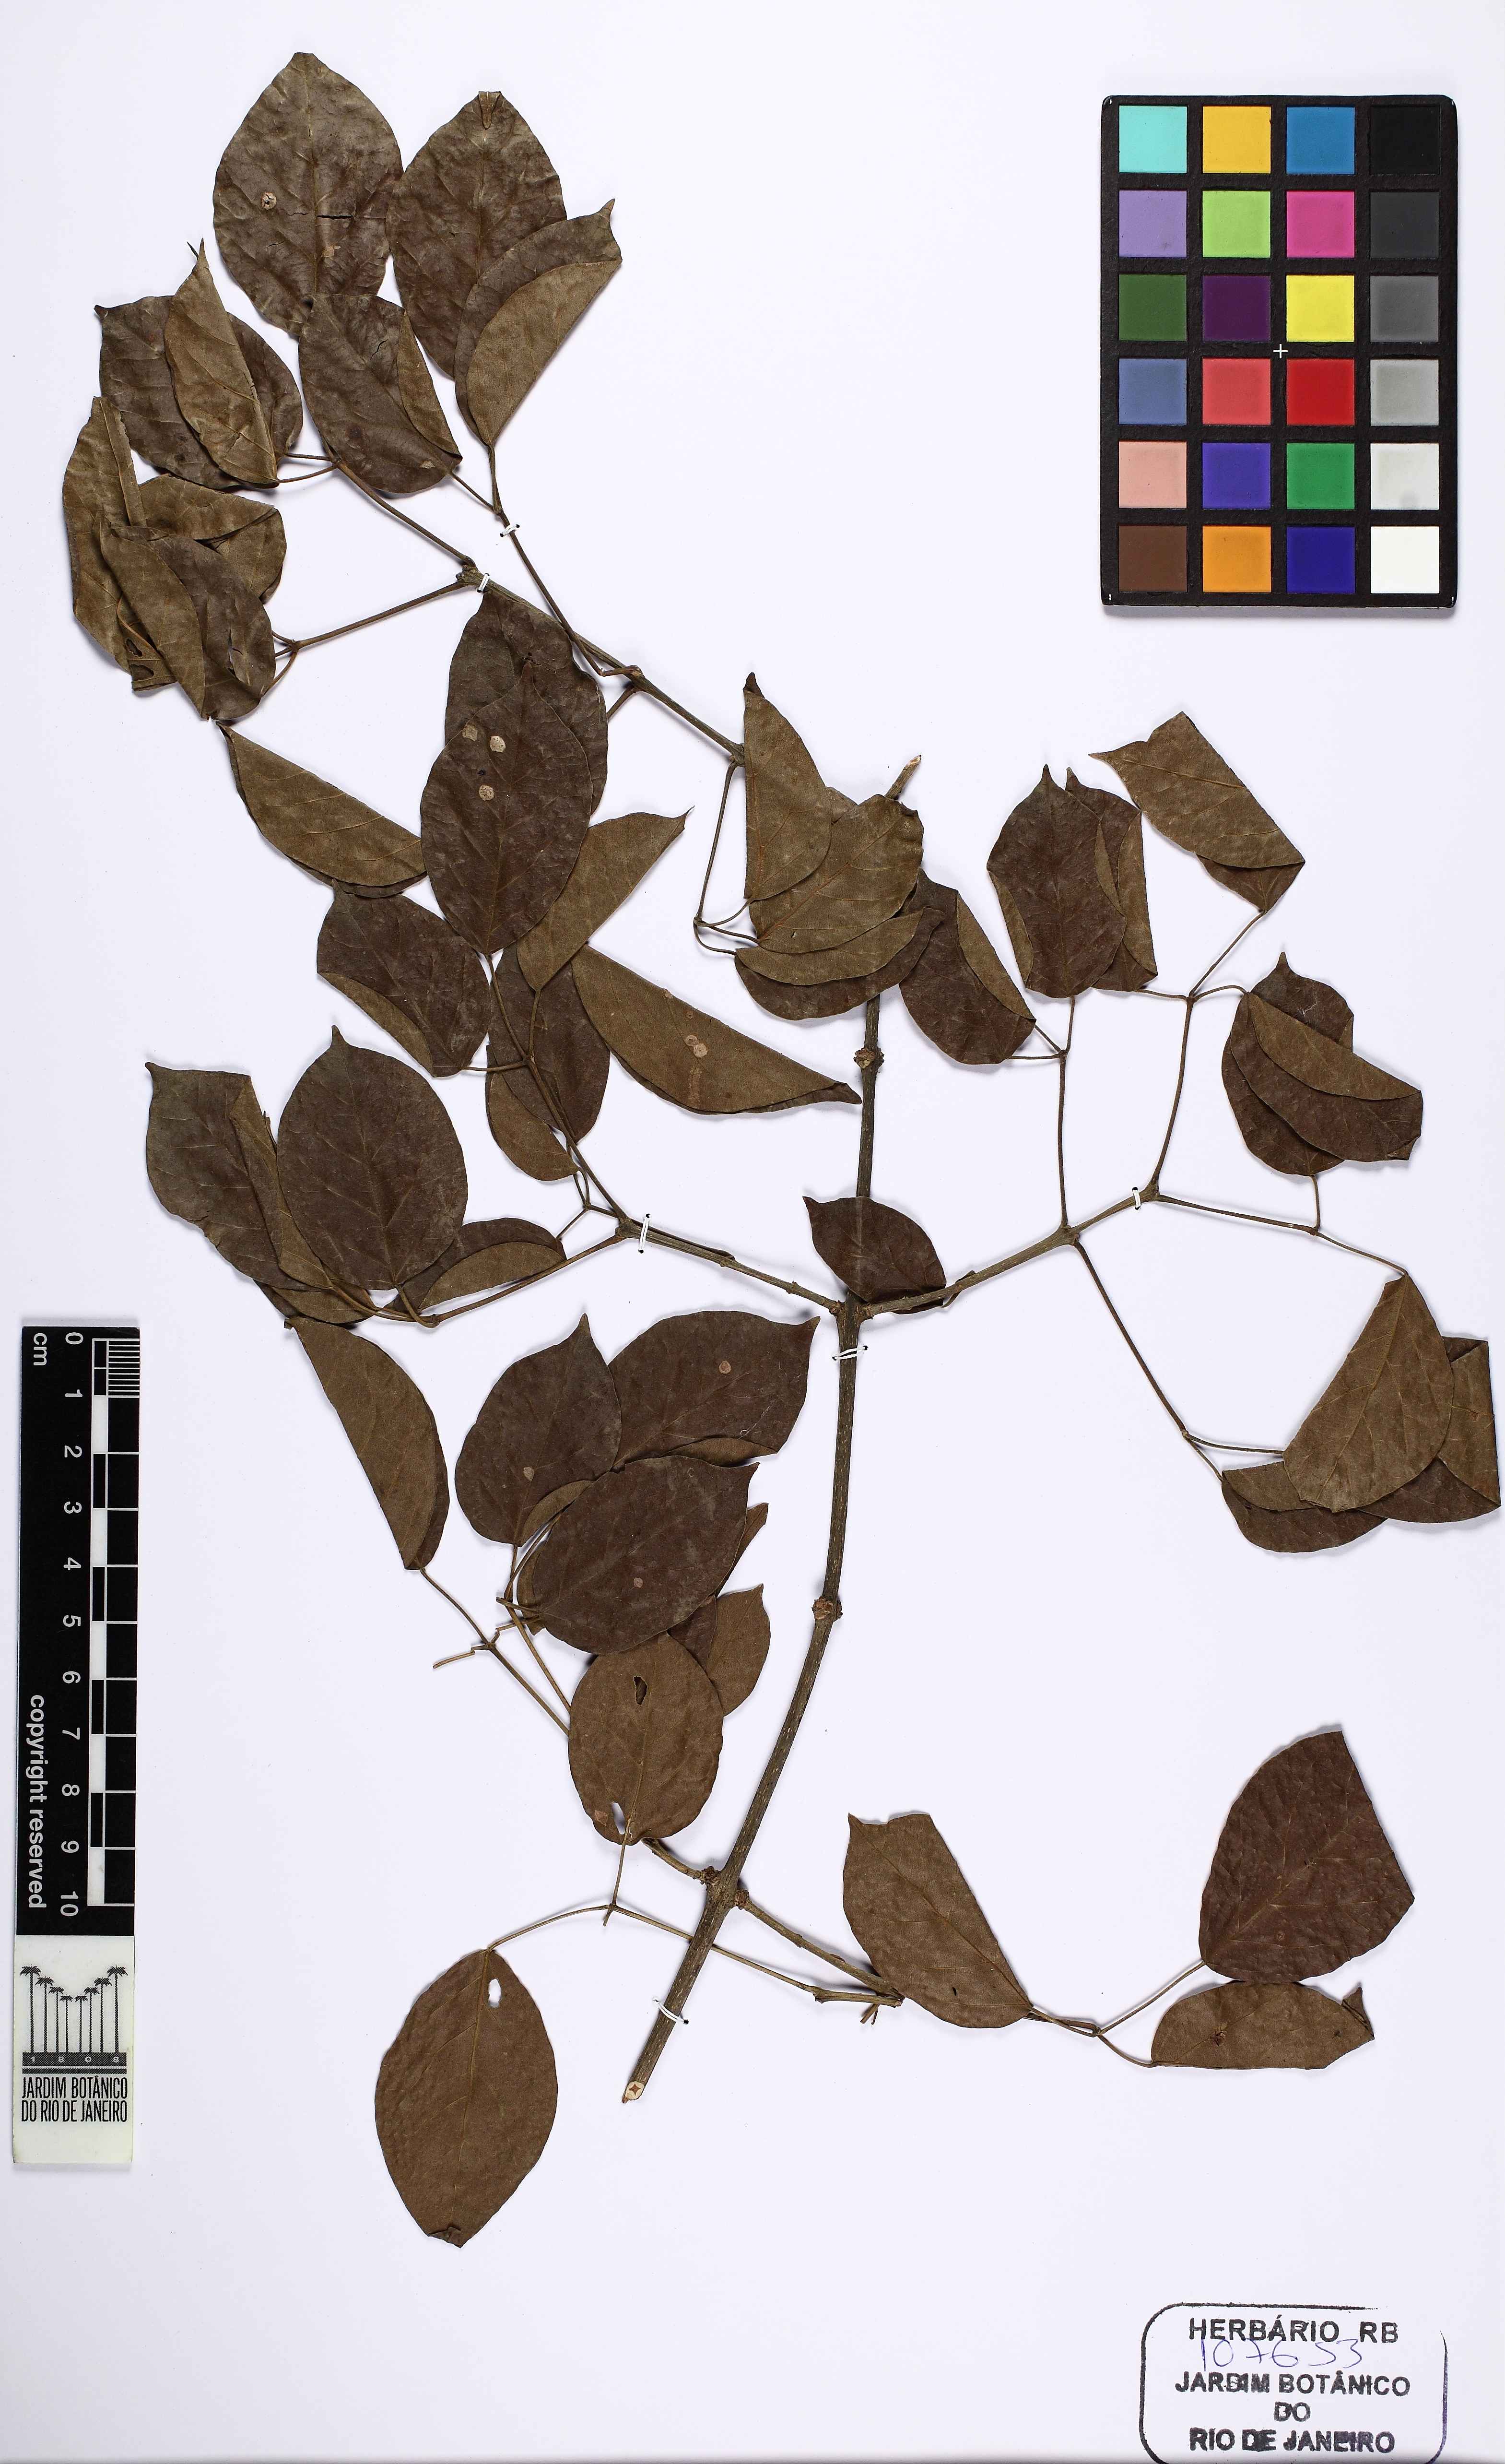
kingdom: Plantae
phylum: Tracheophyta
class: Magnoliopsida
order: Lamiales
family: Bignoniaceae
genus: Tanaecium
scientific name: Tanaecium selloi
